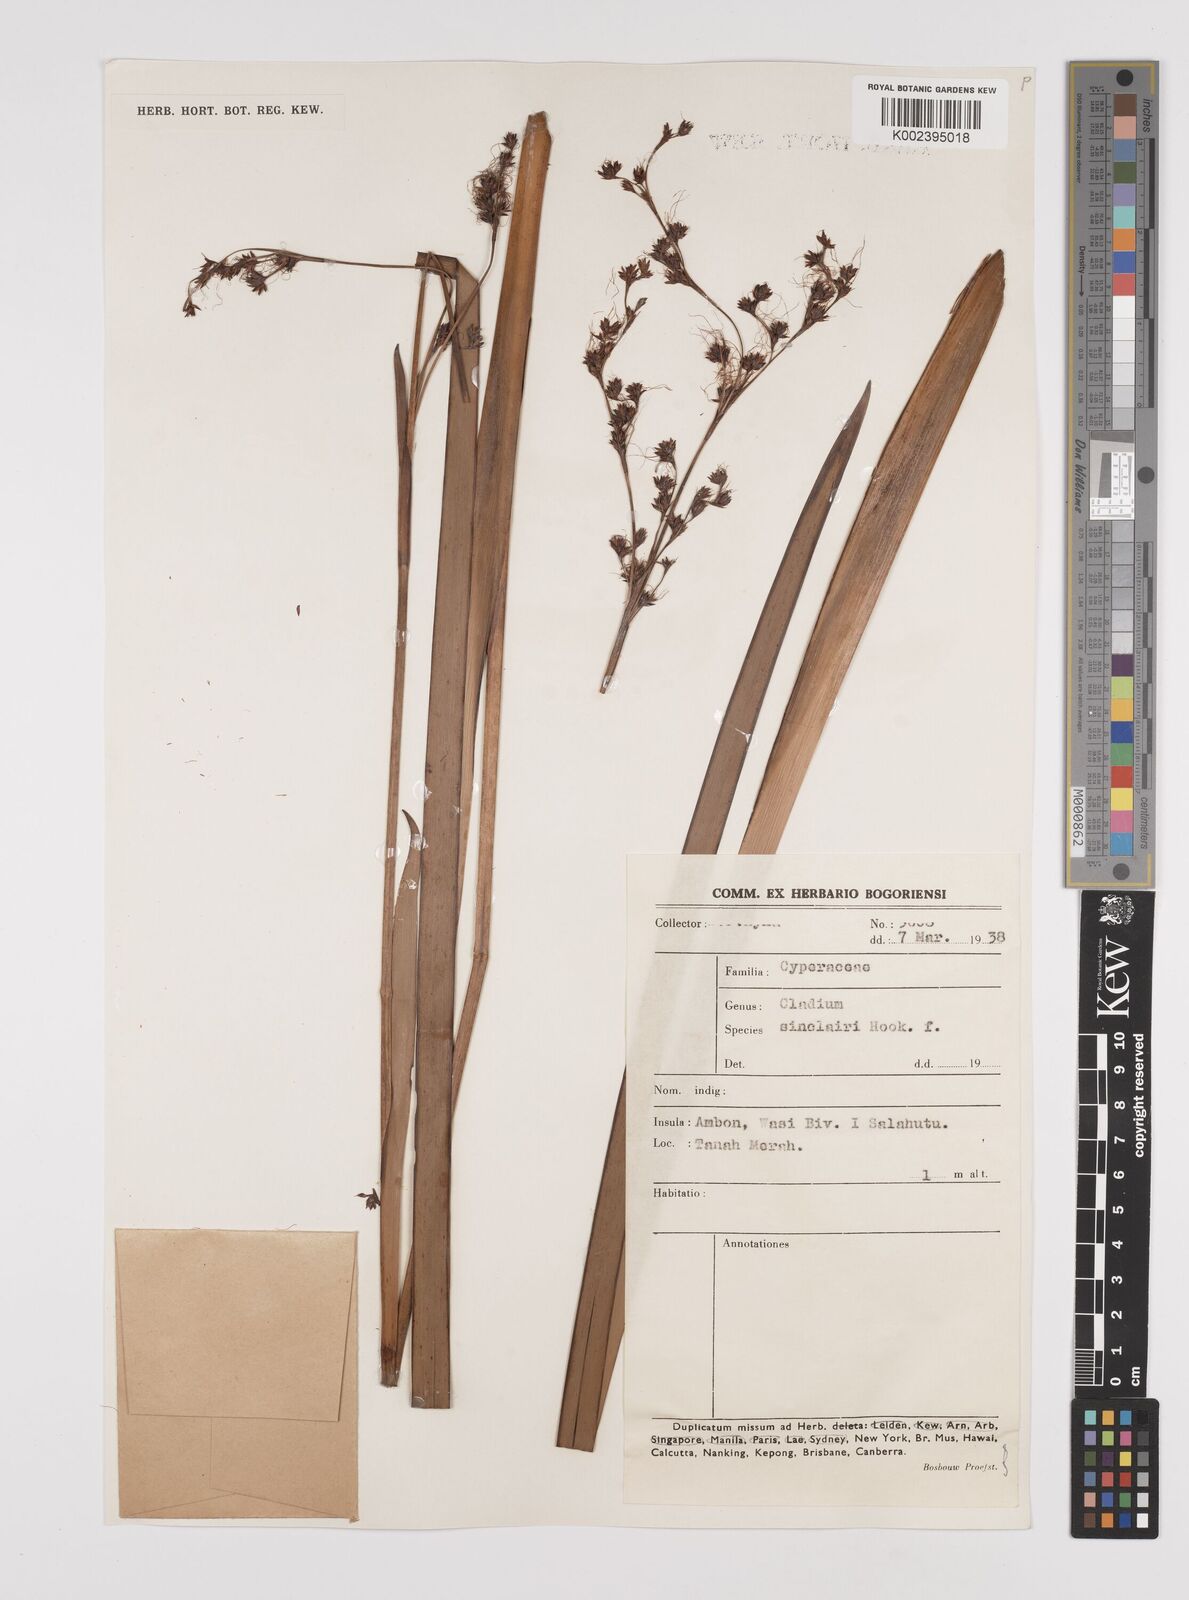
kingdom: Plantae
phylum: Tracheophyta
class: Liliopsida
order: Poales
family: Cyperaceae
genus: Machaerina
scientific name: Machaerina sinclairii
